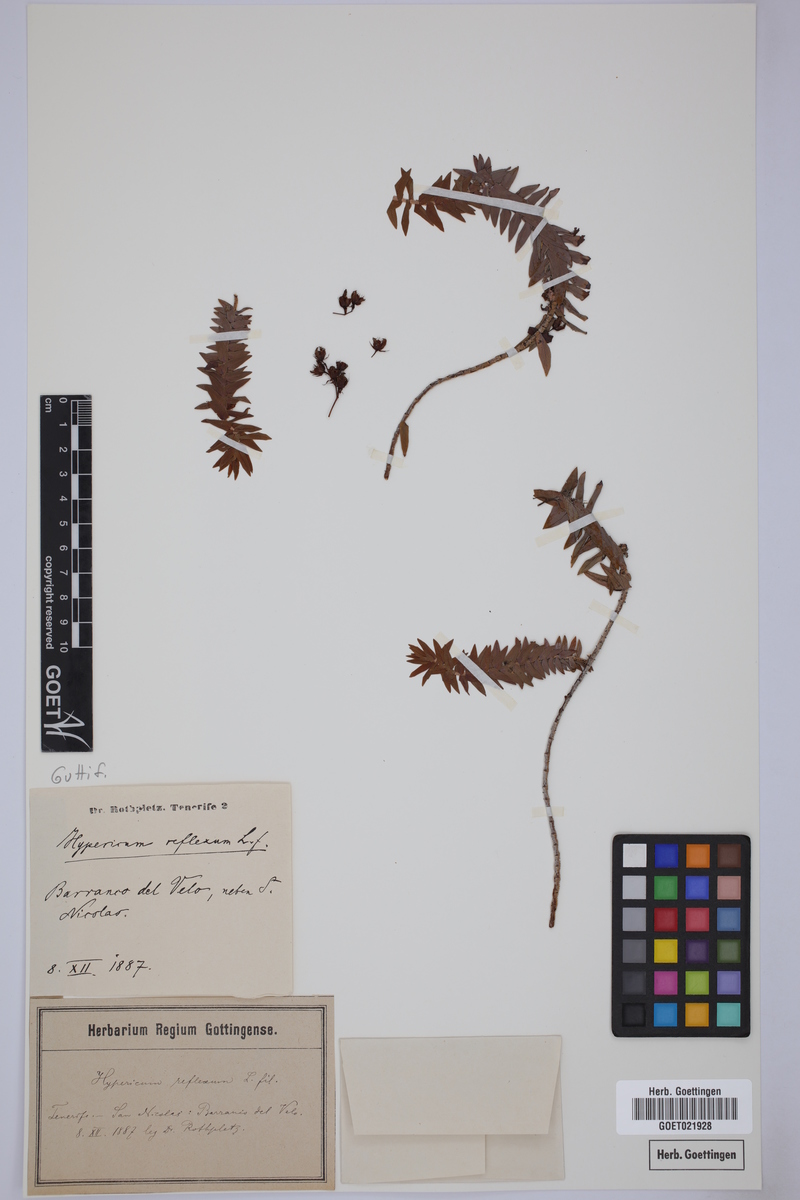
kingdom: Plantae
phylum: Tracheophyta
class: Magnoliopsida
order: Malpighiales
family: Hypericaceae
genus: Hypericum
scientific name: Hypericum reflexum
